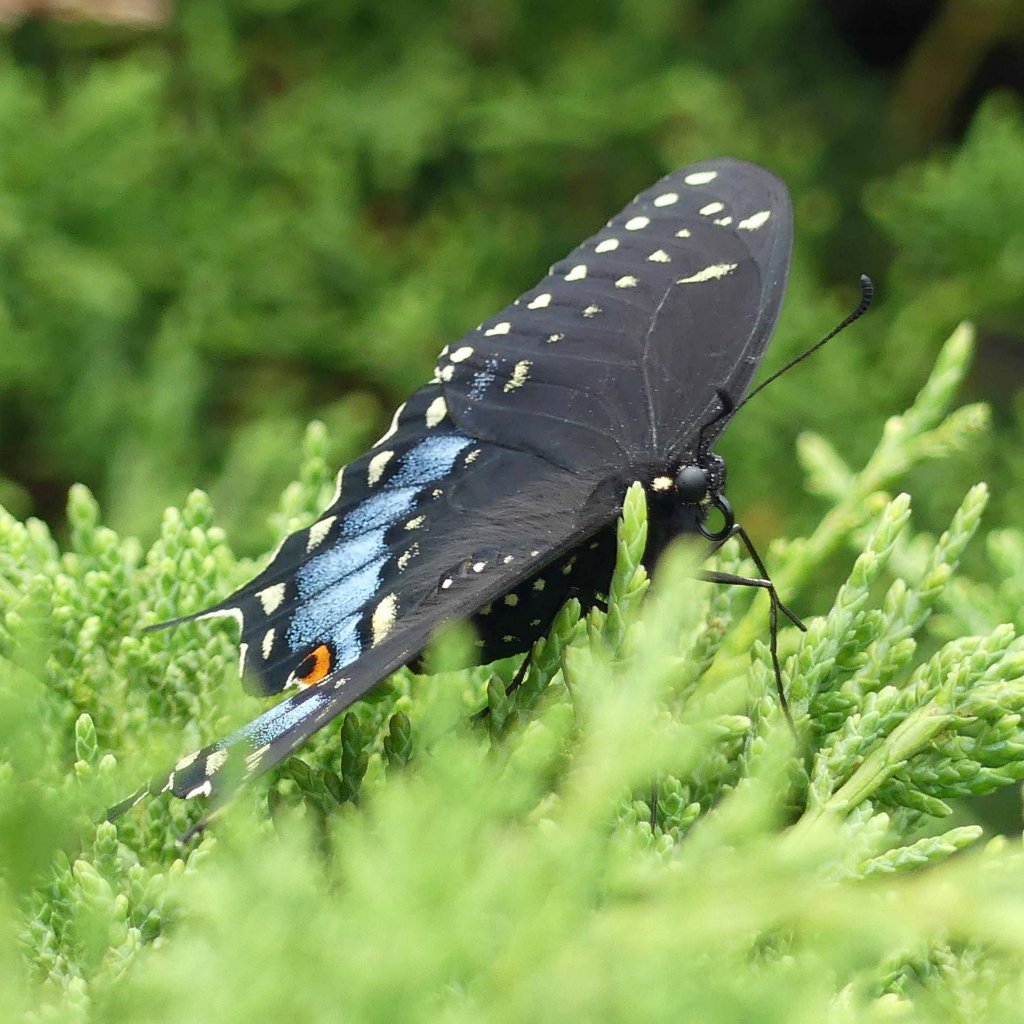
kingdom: Animalia
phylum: Arthropoda
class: Insecta
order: Lepidoptera
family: Papilionidae
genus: Papilio
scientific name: Papilio polyxenes
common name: Black Swallowtail
